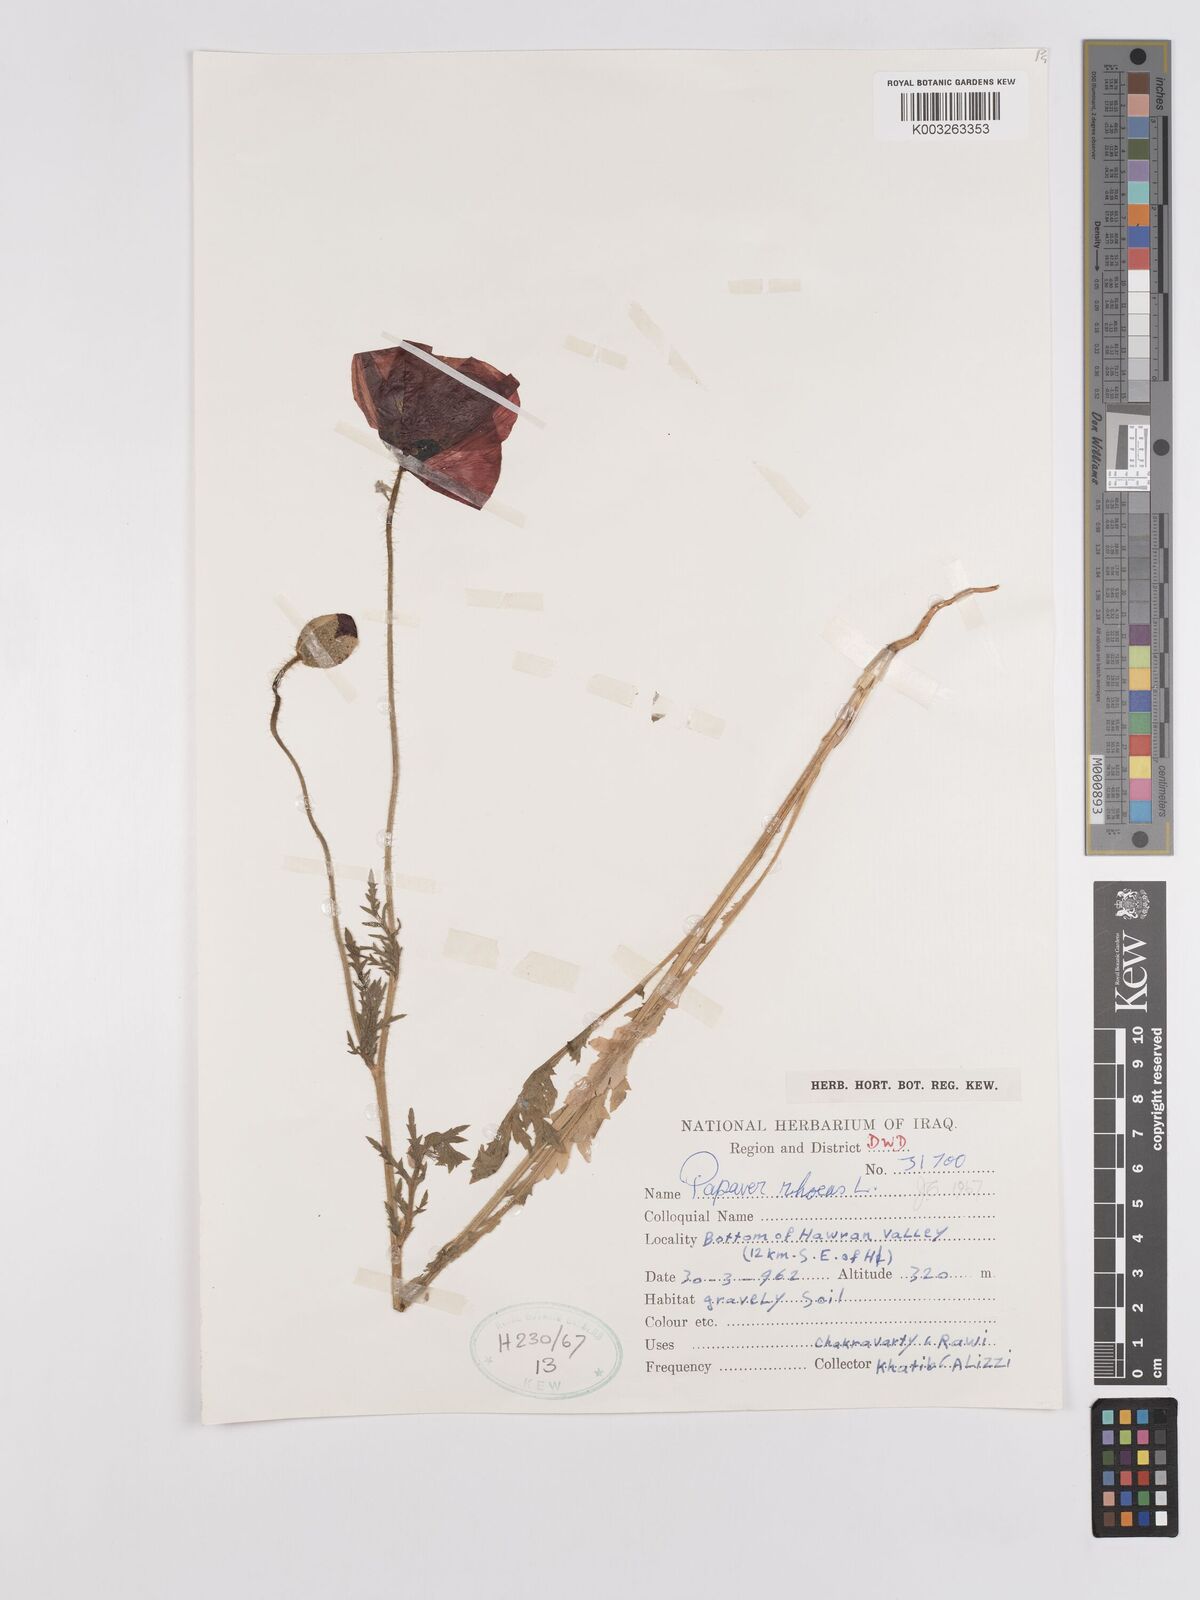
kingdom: Plantae
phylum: Tracheophyta
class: Magnoliopsida
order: Ranunculales
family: Papaveraceae
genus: Papaver
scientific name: Papaver rhoeas
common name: Corn poppy
